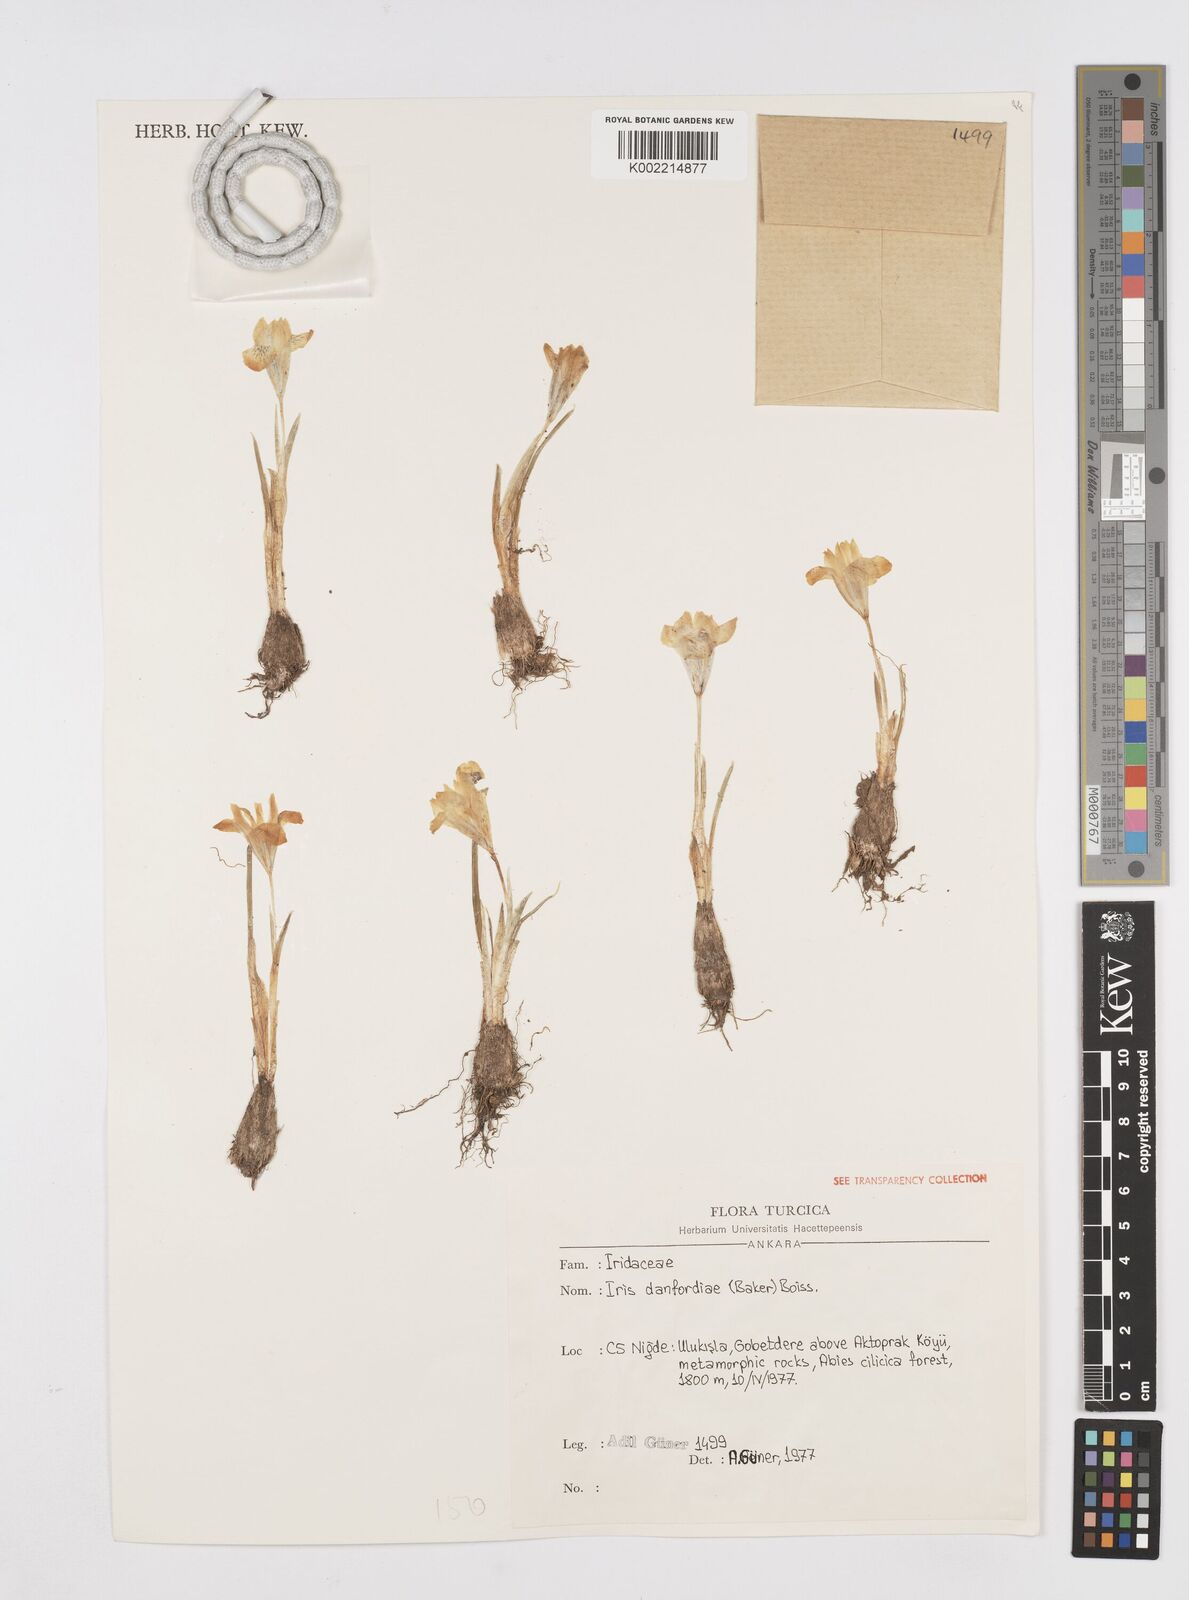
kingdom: Plantae
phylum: Tracheophyta
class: Liliopsida
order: Asparagales
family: Iridaceae
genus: Iris
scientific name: Iris danfordiae
